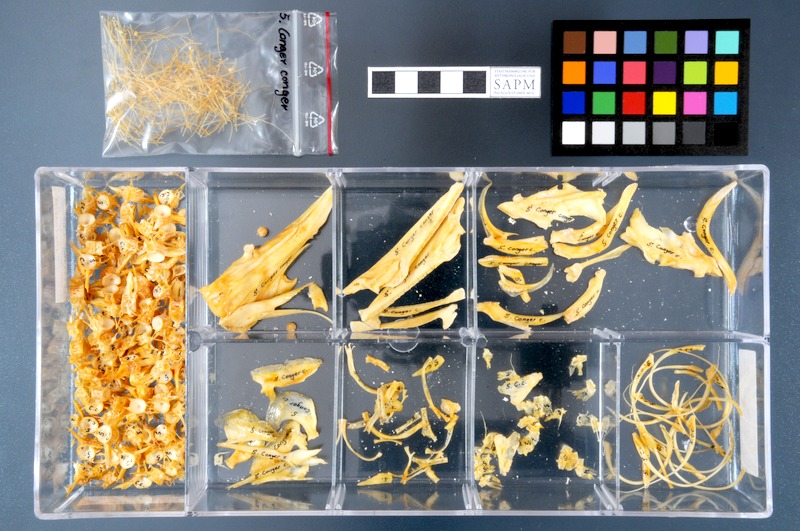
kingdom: Animalia
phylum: Chordata
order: Anguilliformes
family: Congridae
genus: Conger
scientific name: Conger conger
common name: Conger eel
